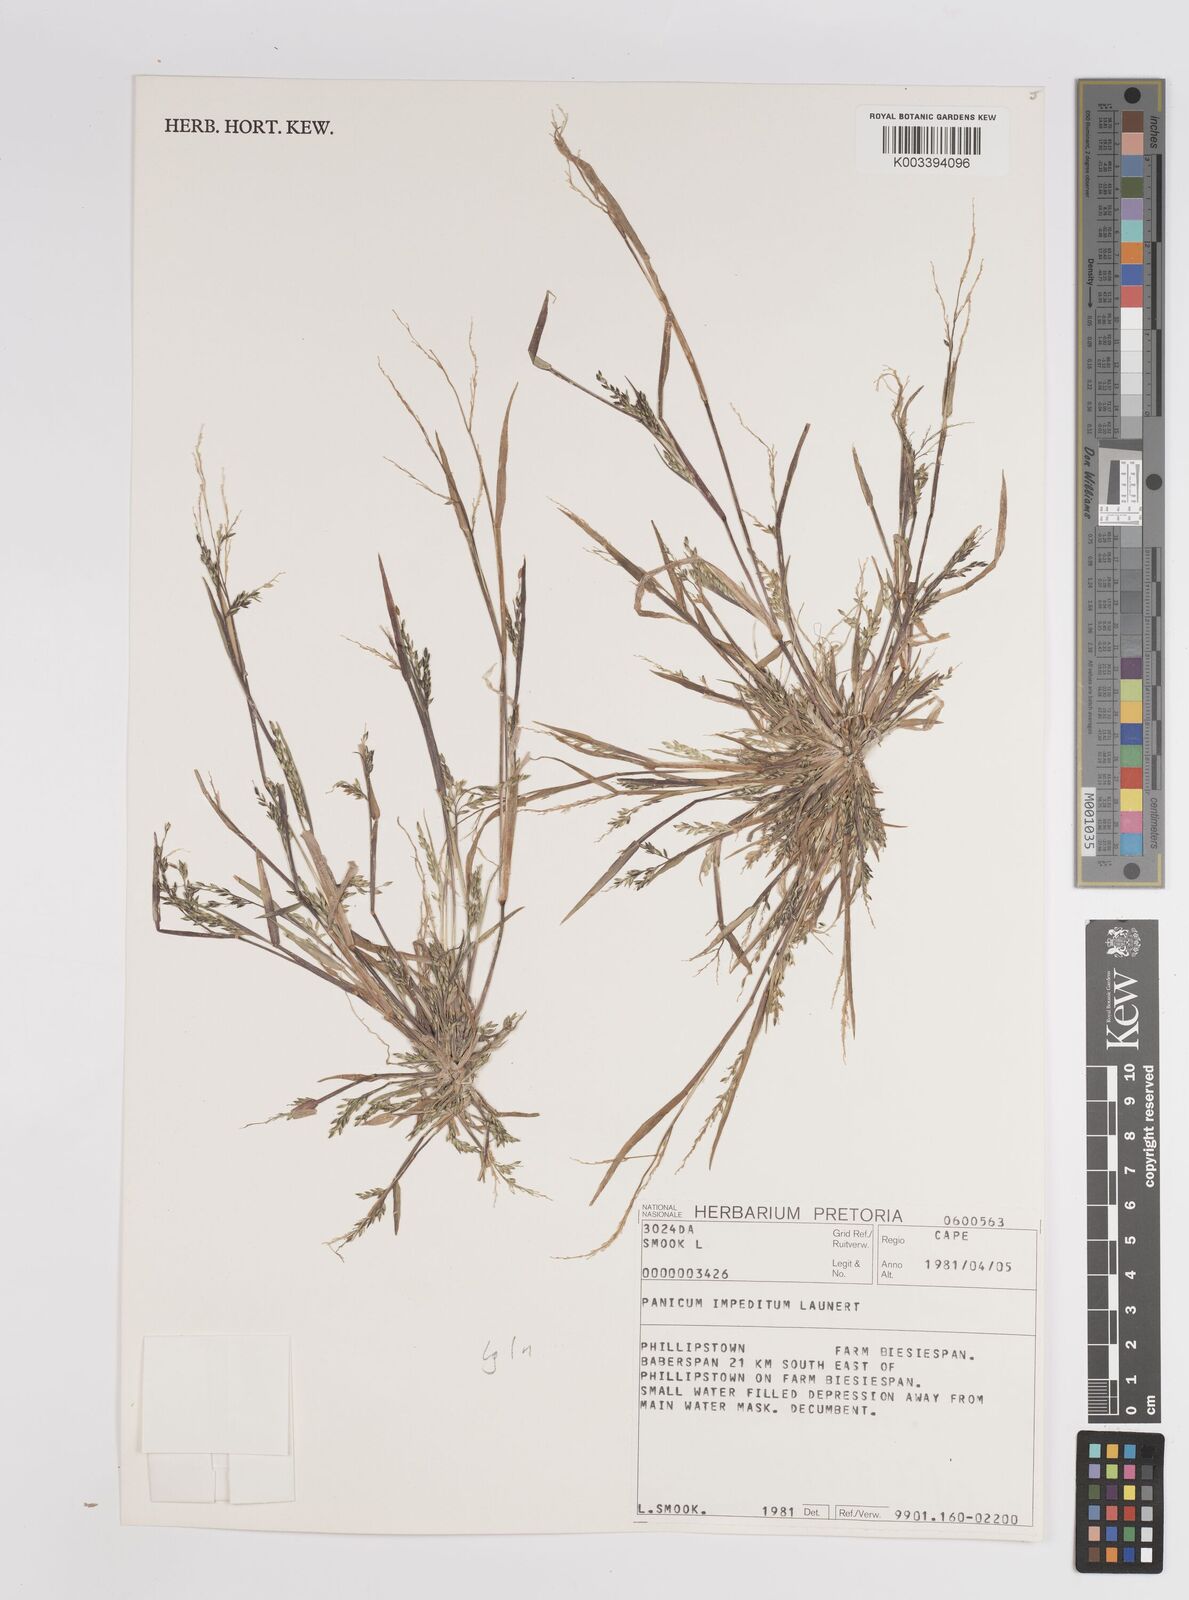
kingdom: Plantae
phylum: Tracheophyta
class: Liliopsida
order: Poales
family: Poaceae
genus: Panicum
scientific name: Panicum impeditum
